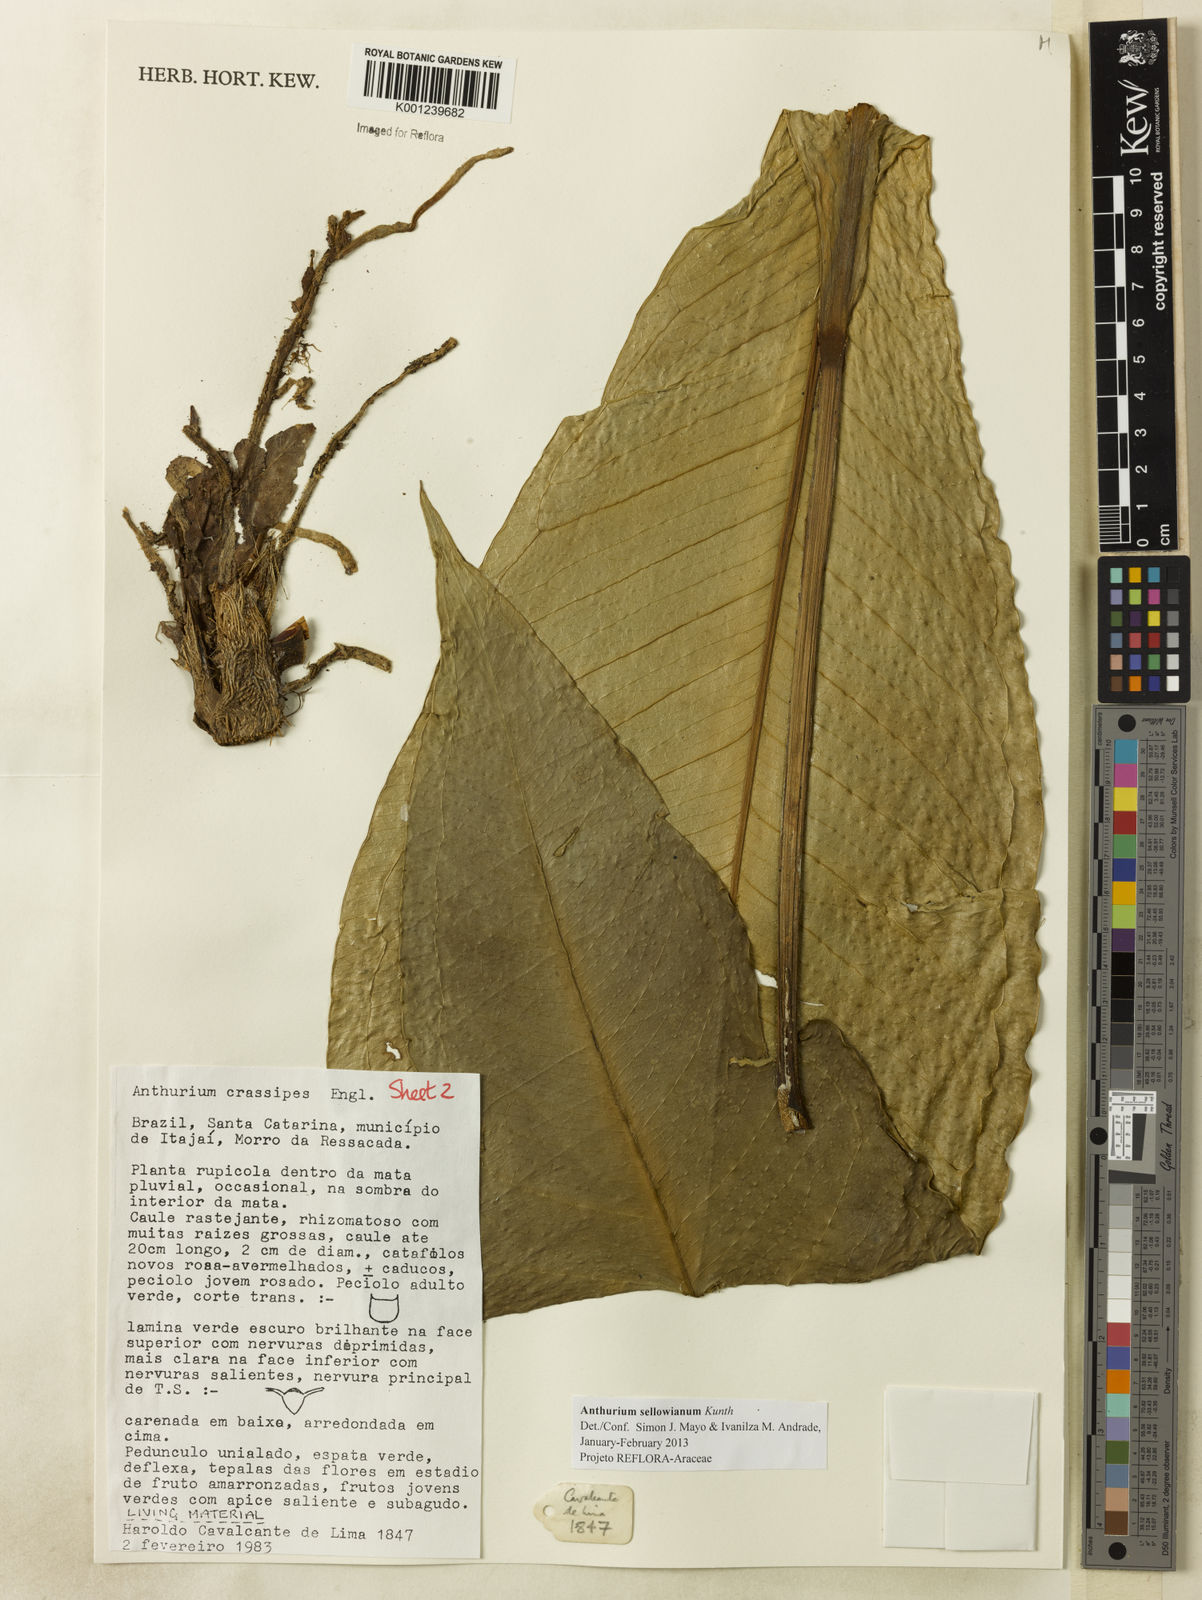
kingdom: Plantae
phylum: Tracheophyta
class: Liliopsida
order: Alismatales
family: Araceae
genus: Anthurium
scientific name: Anthurium sellowianum
